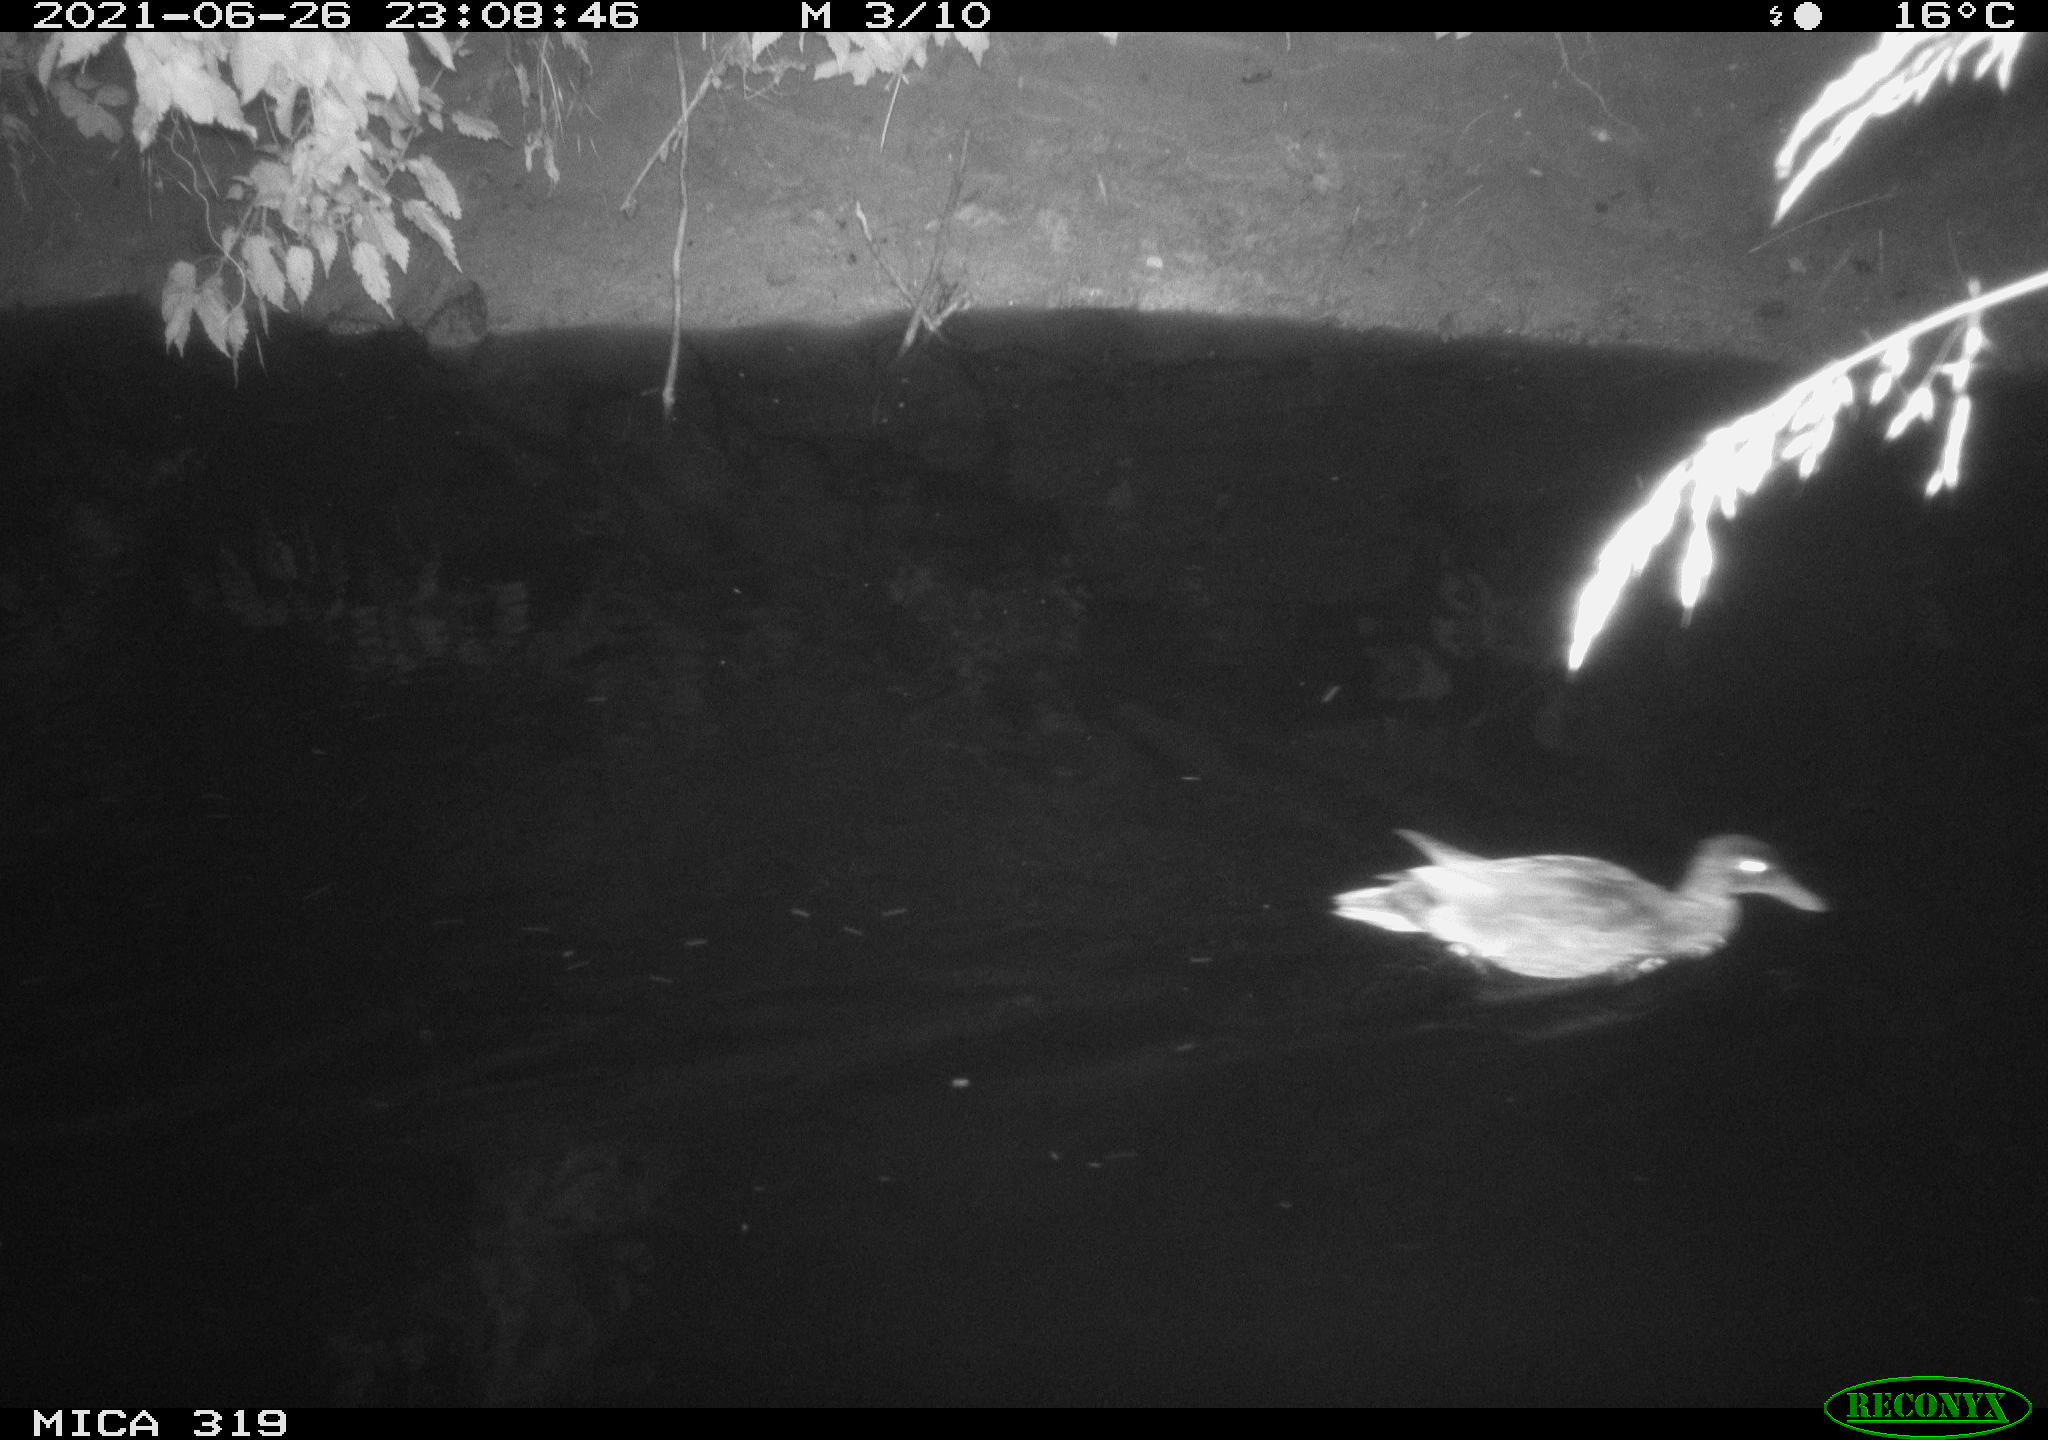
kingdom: Animalia
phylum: Chordata
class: Aves
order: Anseriformes
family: Anatidae
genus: Anas
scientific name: Anas platyrhynchos
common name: Mallard
